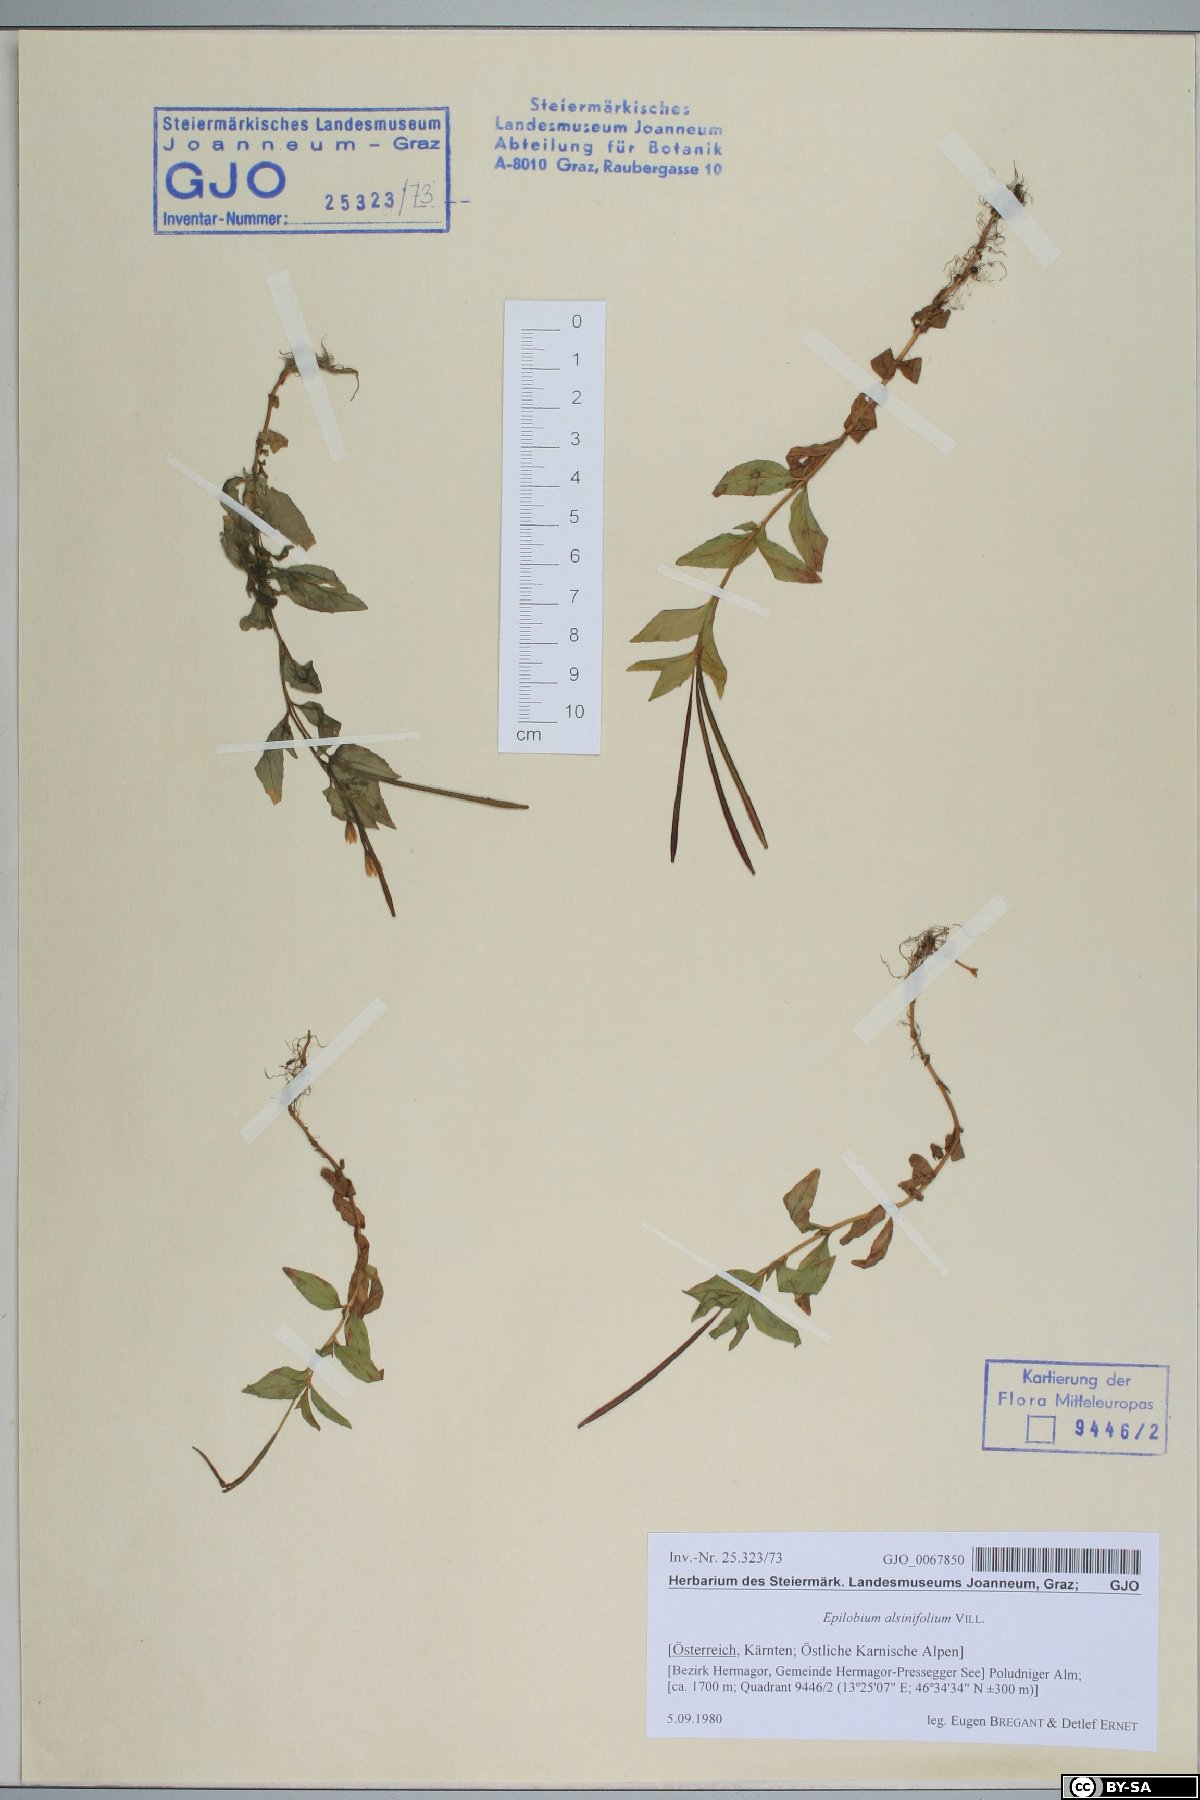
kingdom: Plantae
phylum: Tracheophyta
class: Magnoliopsida
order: Myrtales
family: Onagraceae
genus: Epilobium
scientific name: Epilobium alsinifolium
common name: Chickweed willowherb
